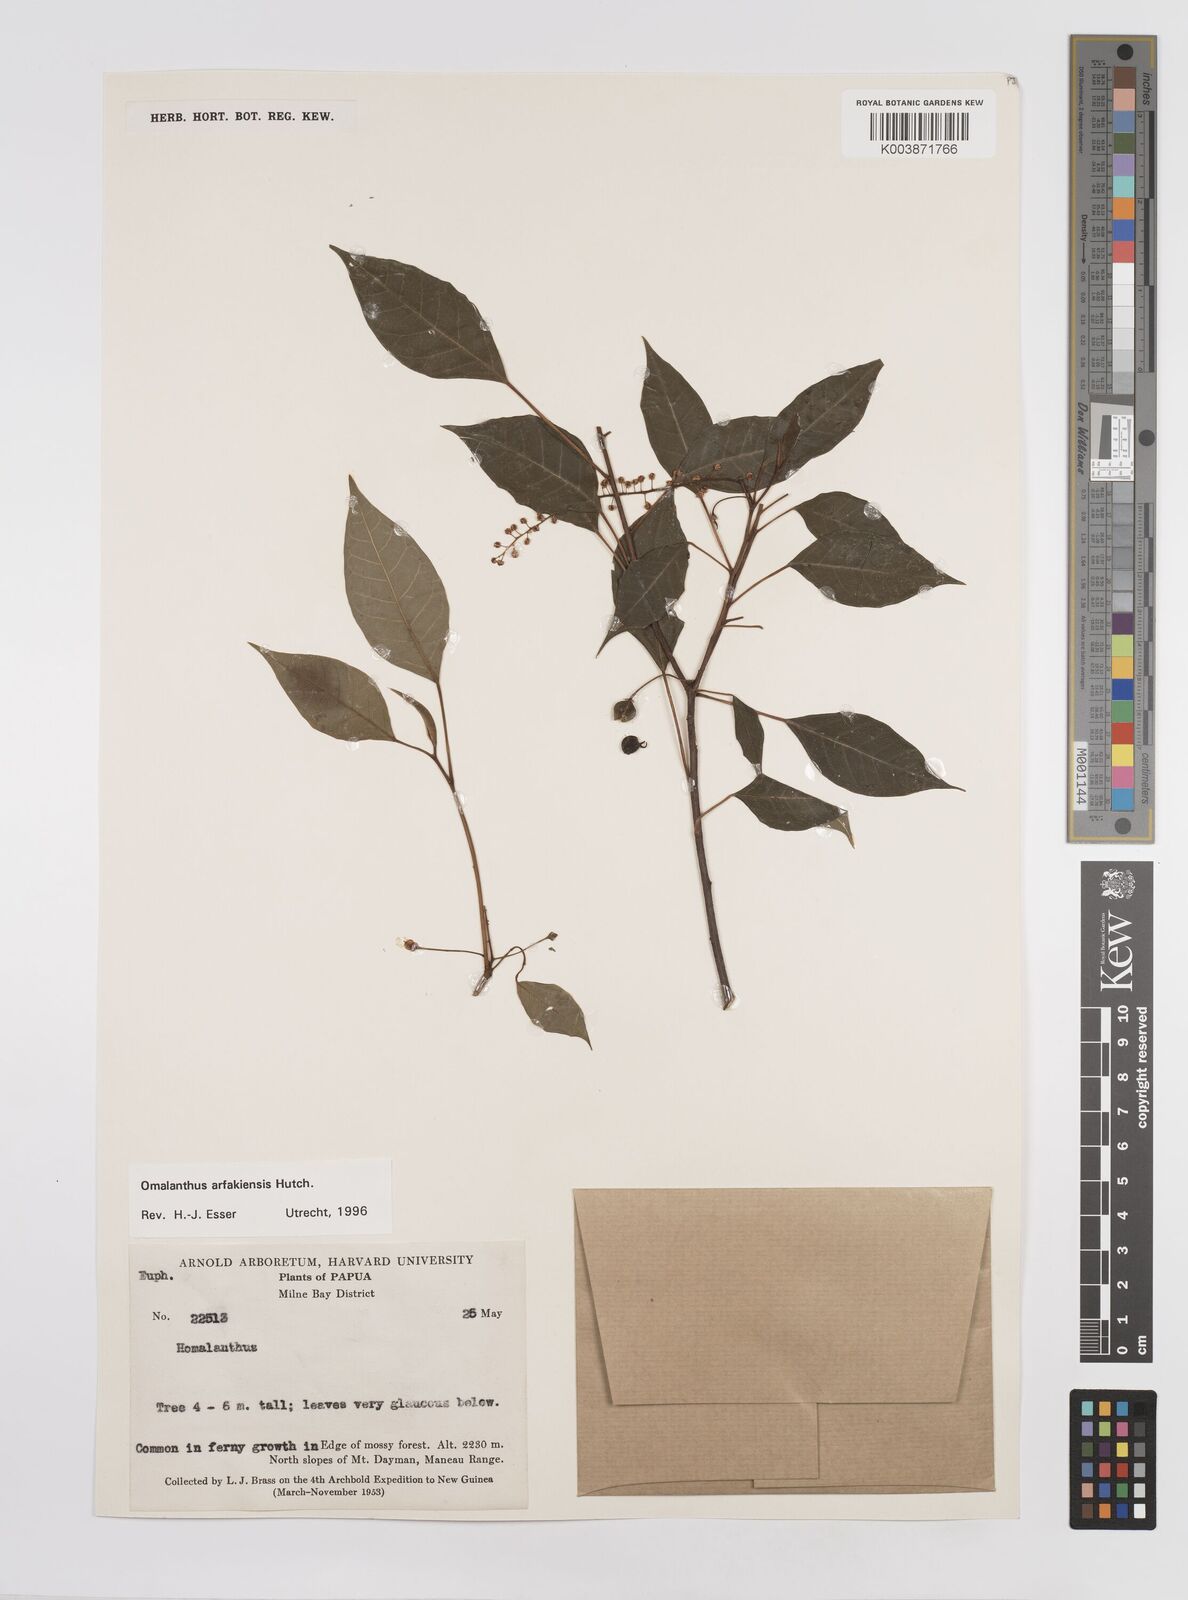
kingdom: Plantae
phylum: Tracheophyta
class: Magnoliopsida
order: Malpighiales
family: Euphorbiaceae
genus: Homalanthus
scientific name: Homalanthus arfakiensis
